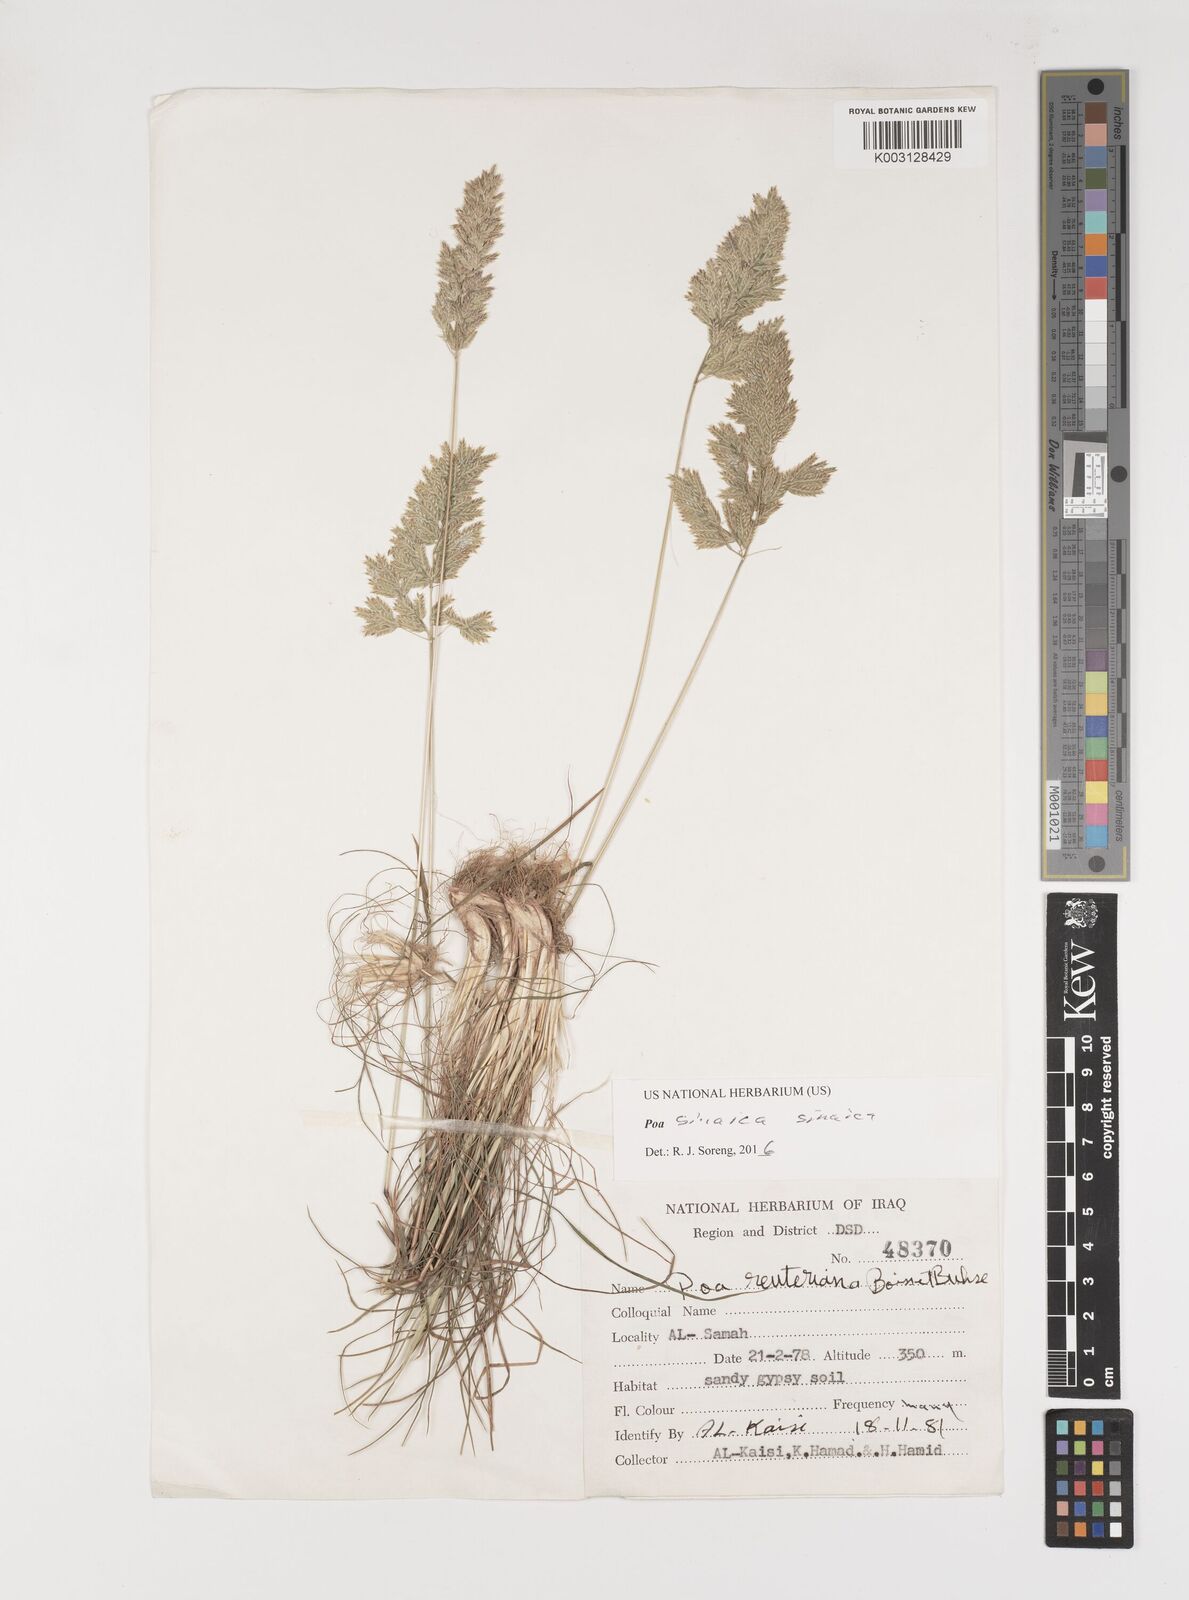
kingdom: Plantae
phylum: Tracheophyta
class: Liliopsida
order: Poales
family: Poaceae
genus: Poa
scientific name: Poa sinaica
